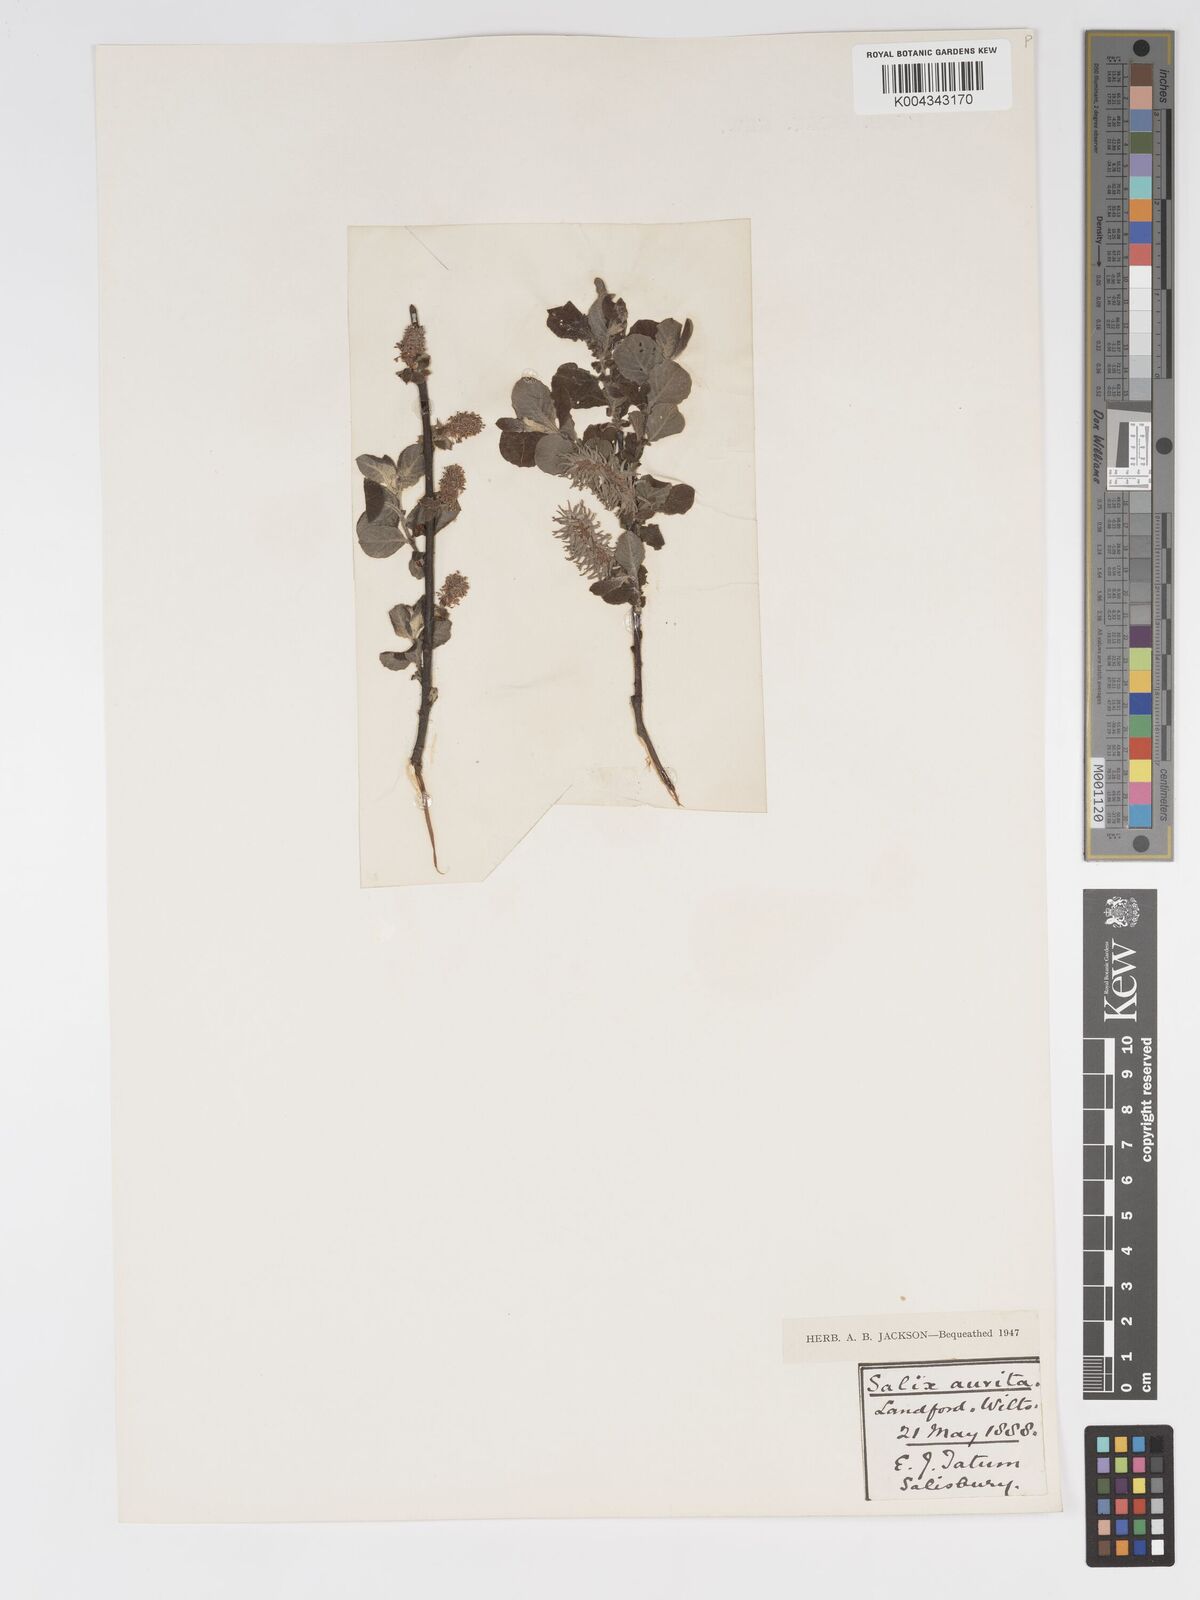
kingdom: Plantae
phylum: Tracheophyta
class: Magnoliopsida
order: Malpighiales
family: Salicaceae
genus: Salix
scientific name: Salix aurita
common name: Eared willow
